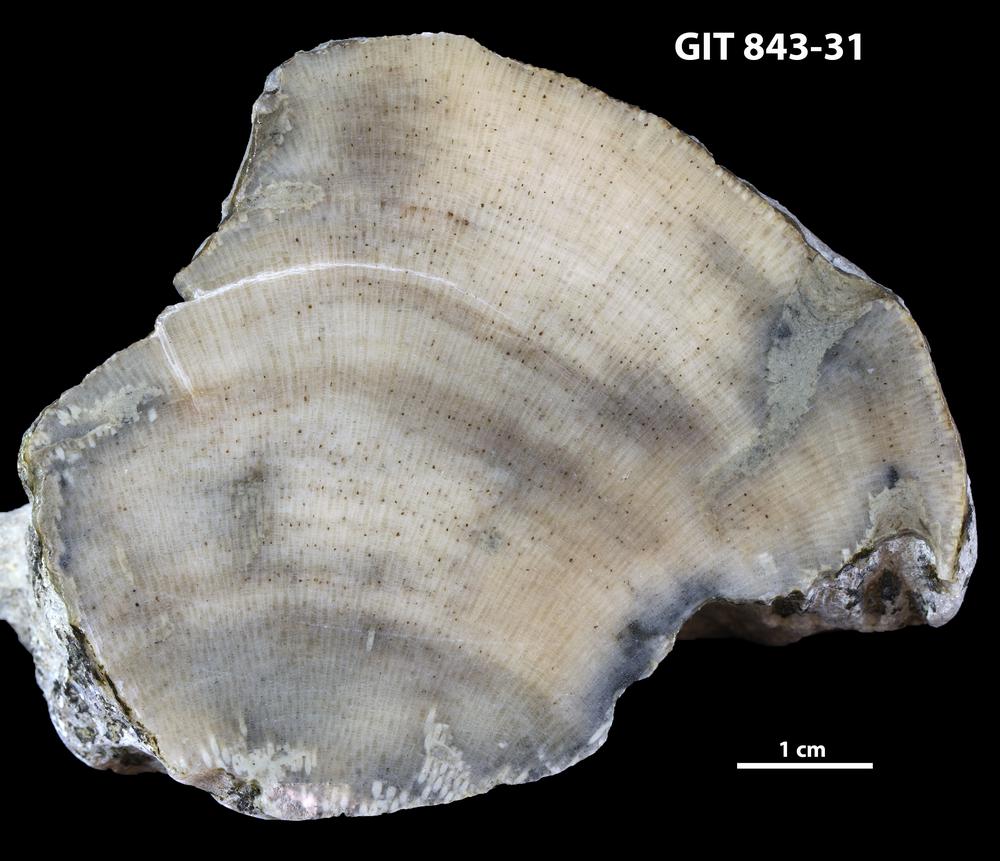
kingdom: Animalia
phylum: Bryozoa
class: Stenolaemata
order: Trepostomatida
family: Diplotrypidae
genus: Diplotrypa
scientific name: Diplotrypa densitabulata
